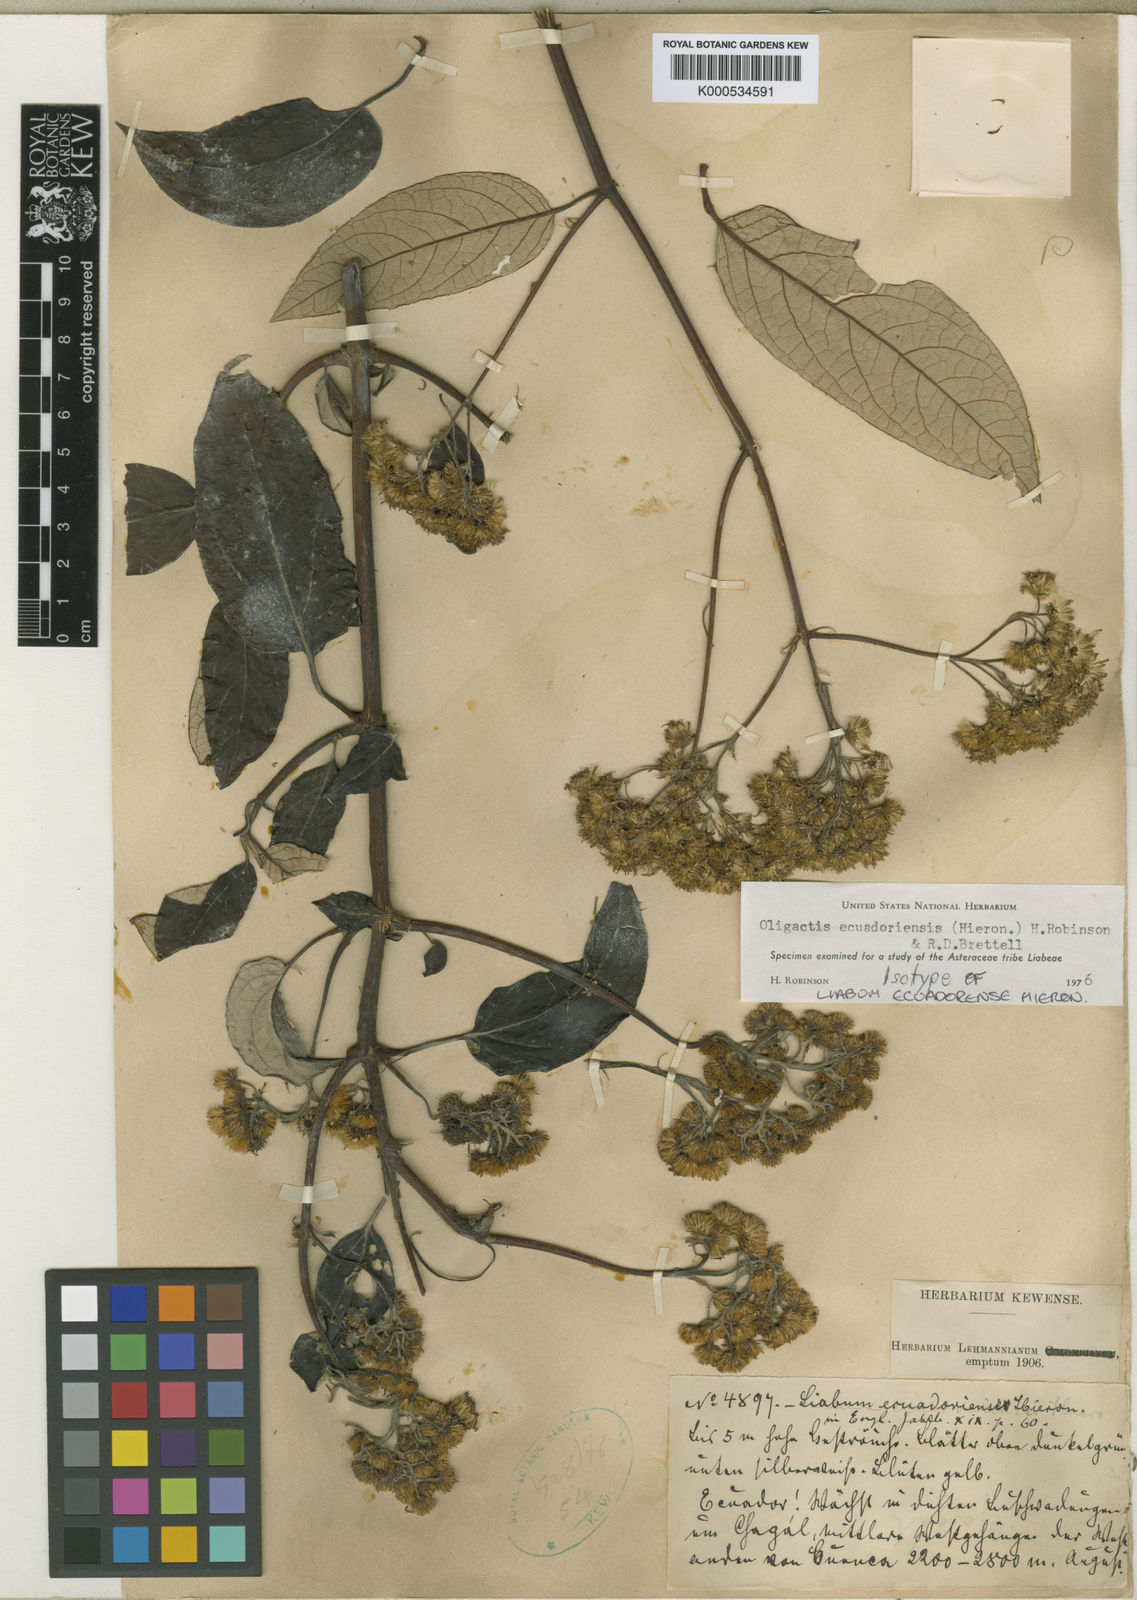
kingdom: Plantae
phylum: Tracheophyta
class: Magnoliopsida
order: Asterales
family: Asteraceae
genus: Sampera
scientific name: Sampera ecuadoriensis
